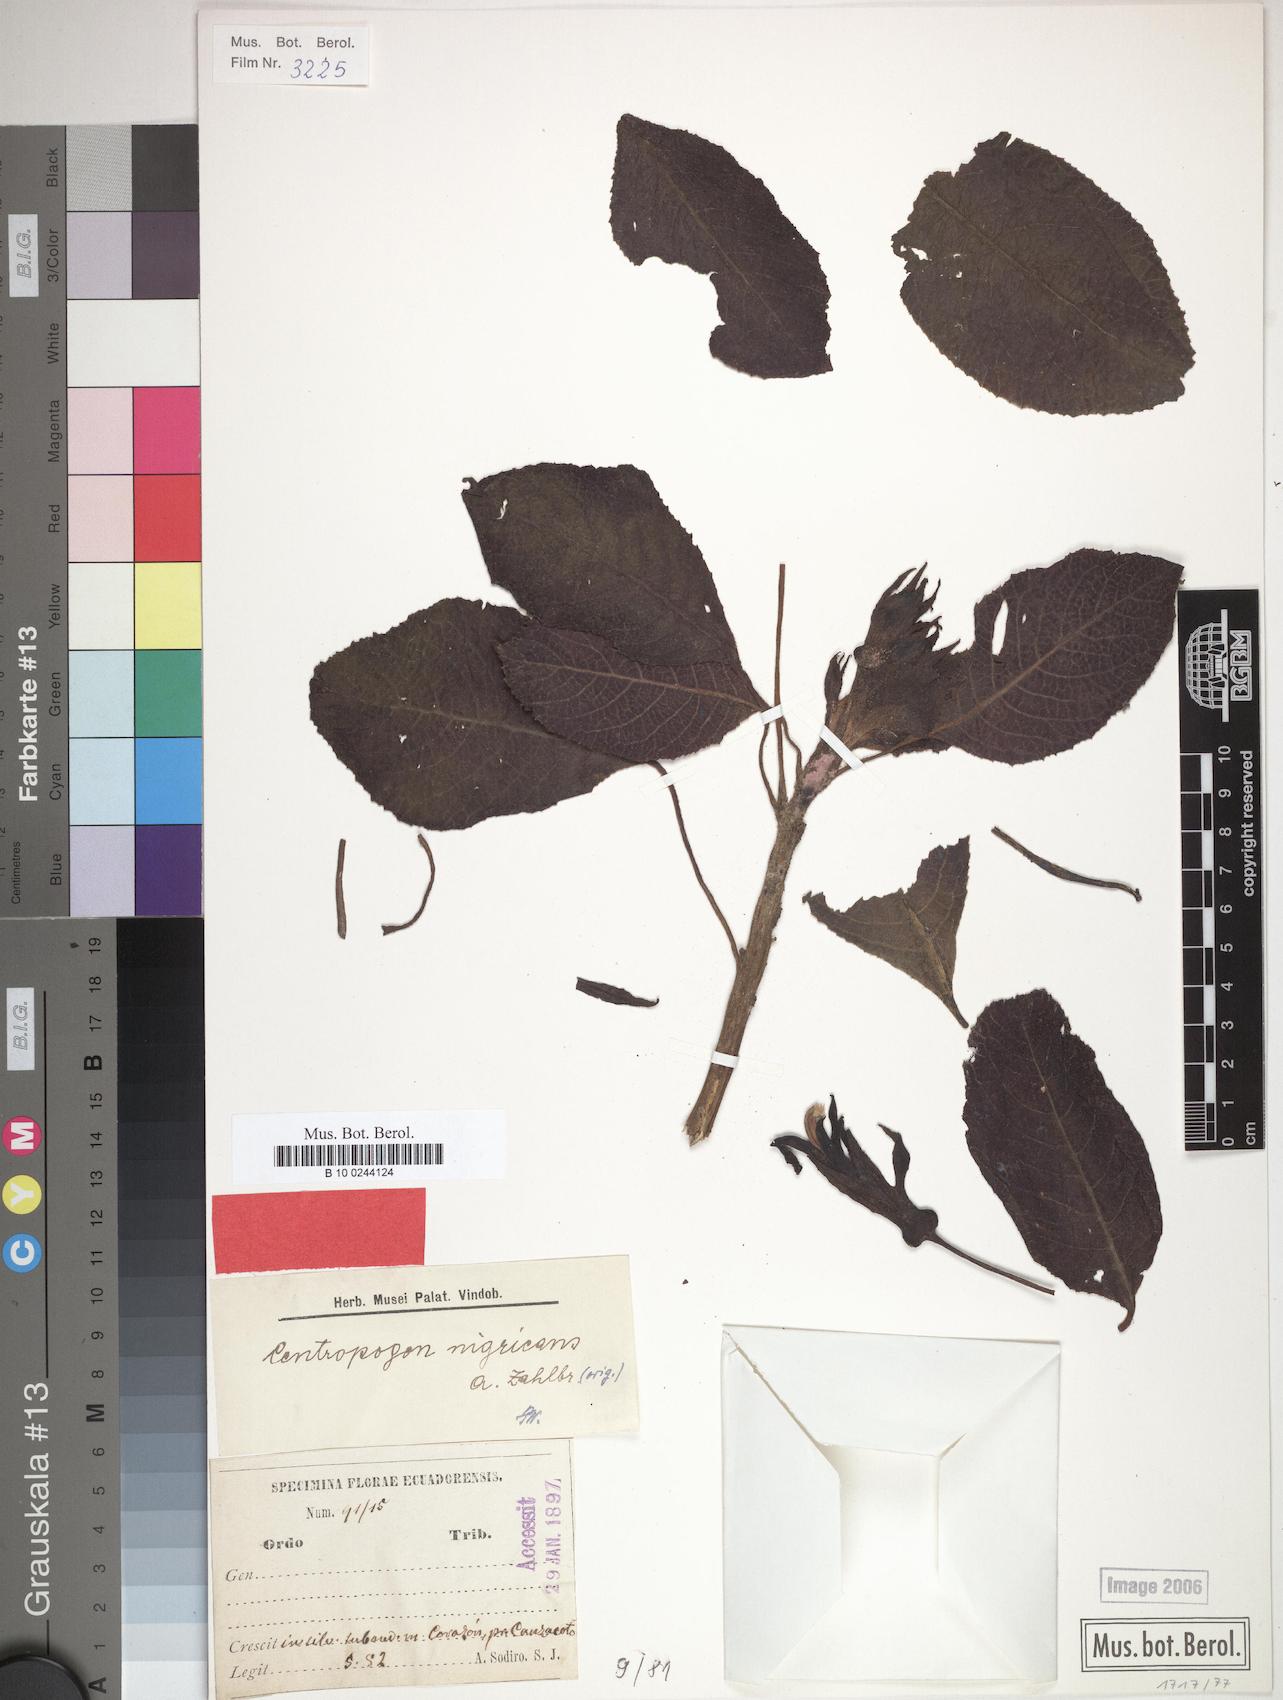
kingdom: Plantae
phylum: Tracheophyta
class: Magnoliopsida
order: Asterales
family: Campanulaceae
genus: Centropogon
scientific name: Centropogon nigricans
